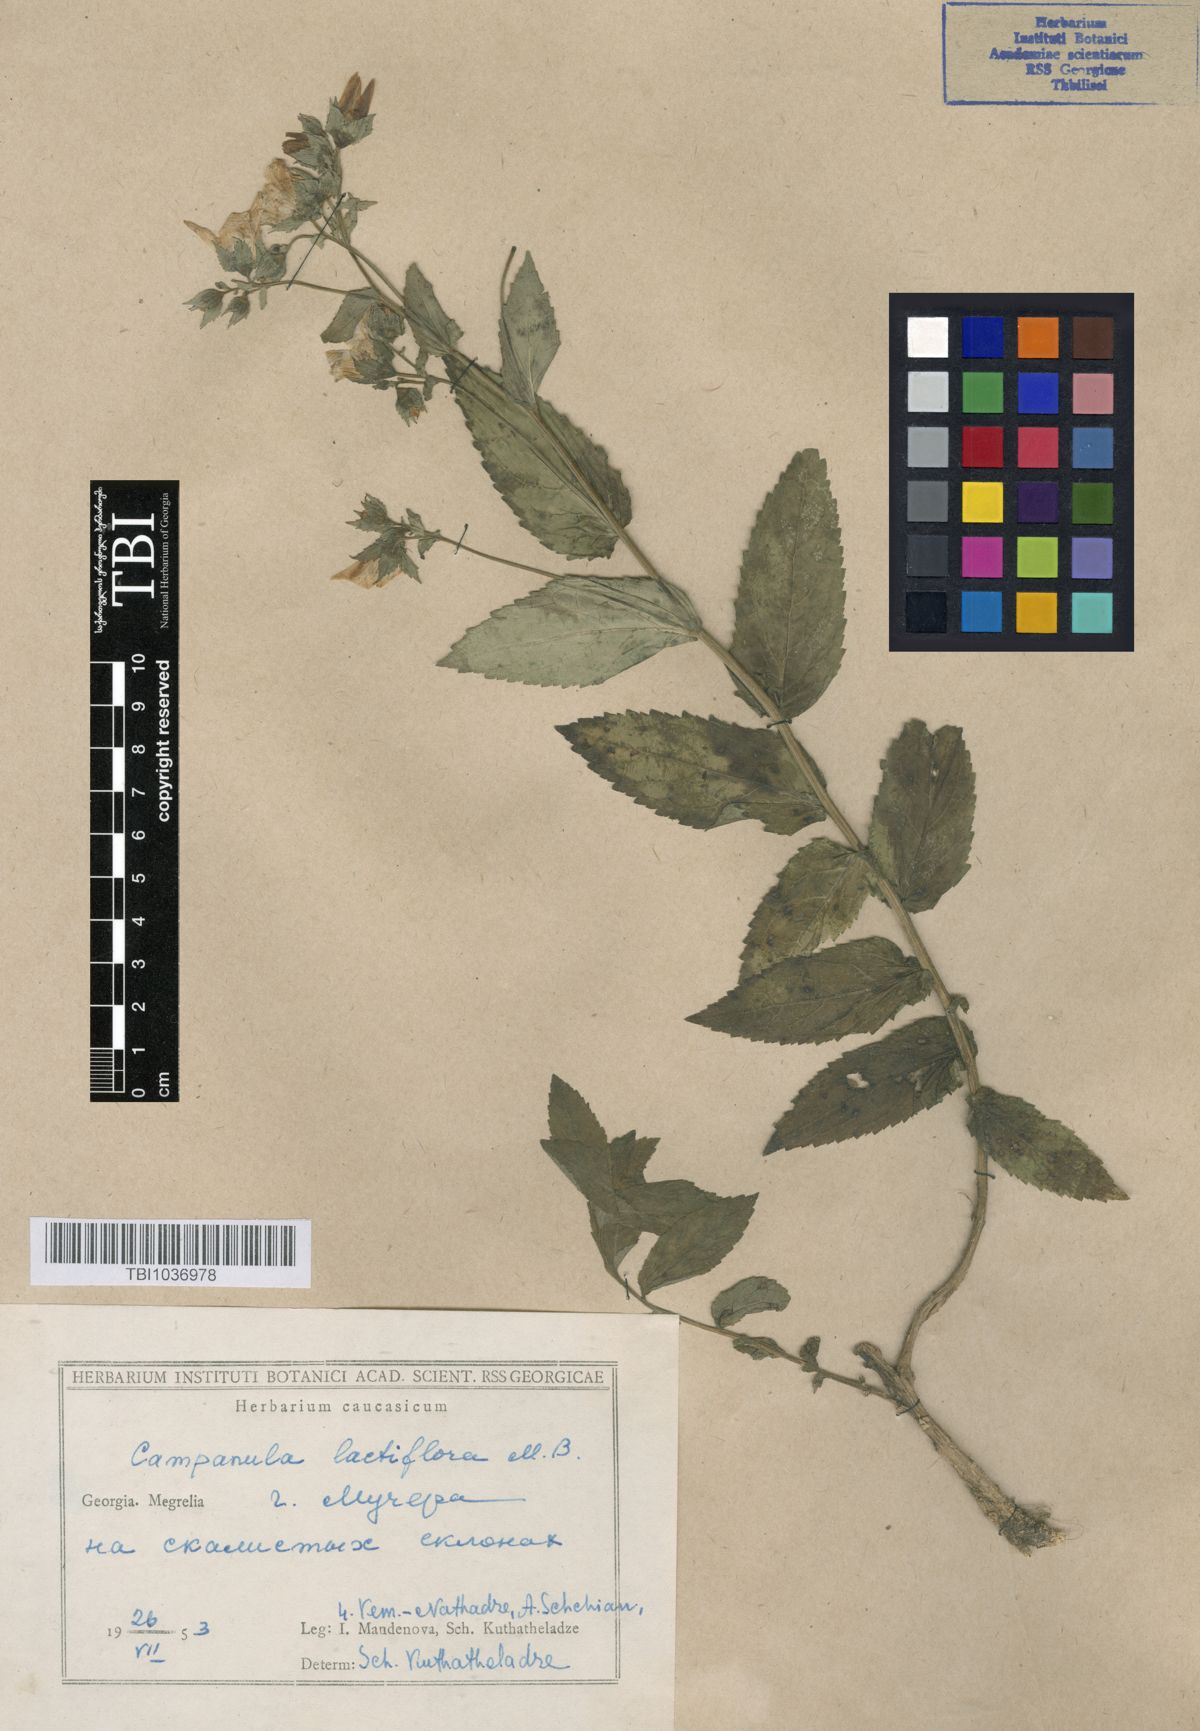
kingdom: Plantae
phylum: Tracheophyta
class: Magnoliopsida
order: Asterales
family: Campanulaceae
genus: Campanula
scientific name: Campanula lactiflora
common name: Milky bellflower
